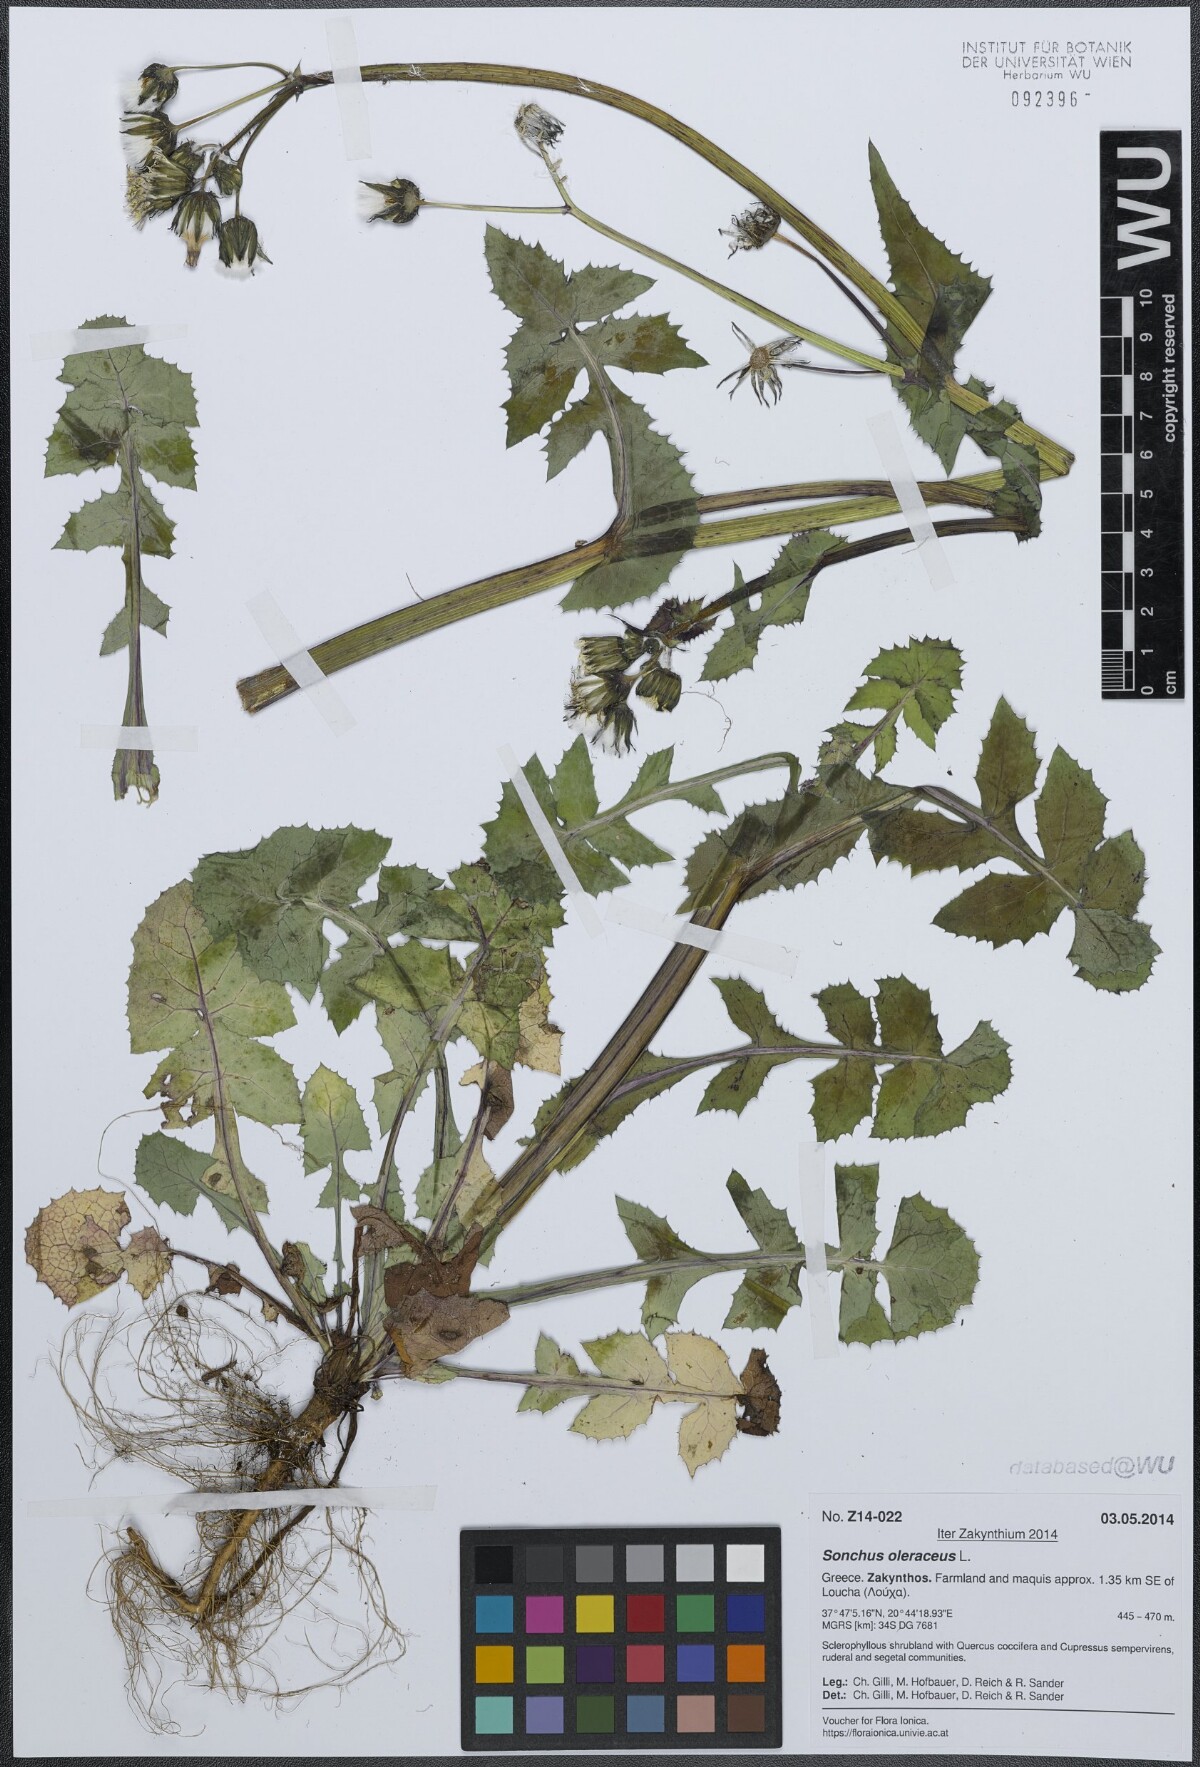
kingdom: Plantae
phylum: Tracheophyta
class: Magnoliopsida
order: Asterales
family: Asteraceae
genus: Sonchus
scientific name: Sonchus oleraceus
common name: Common sowthistle
